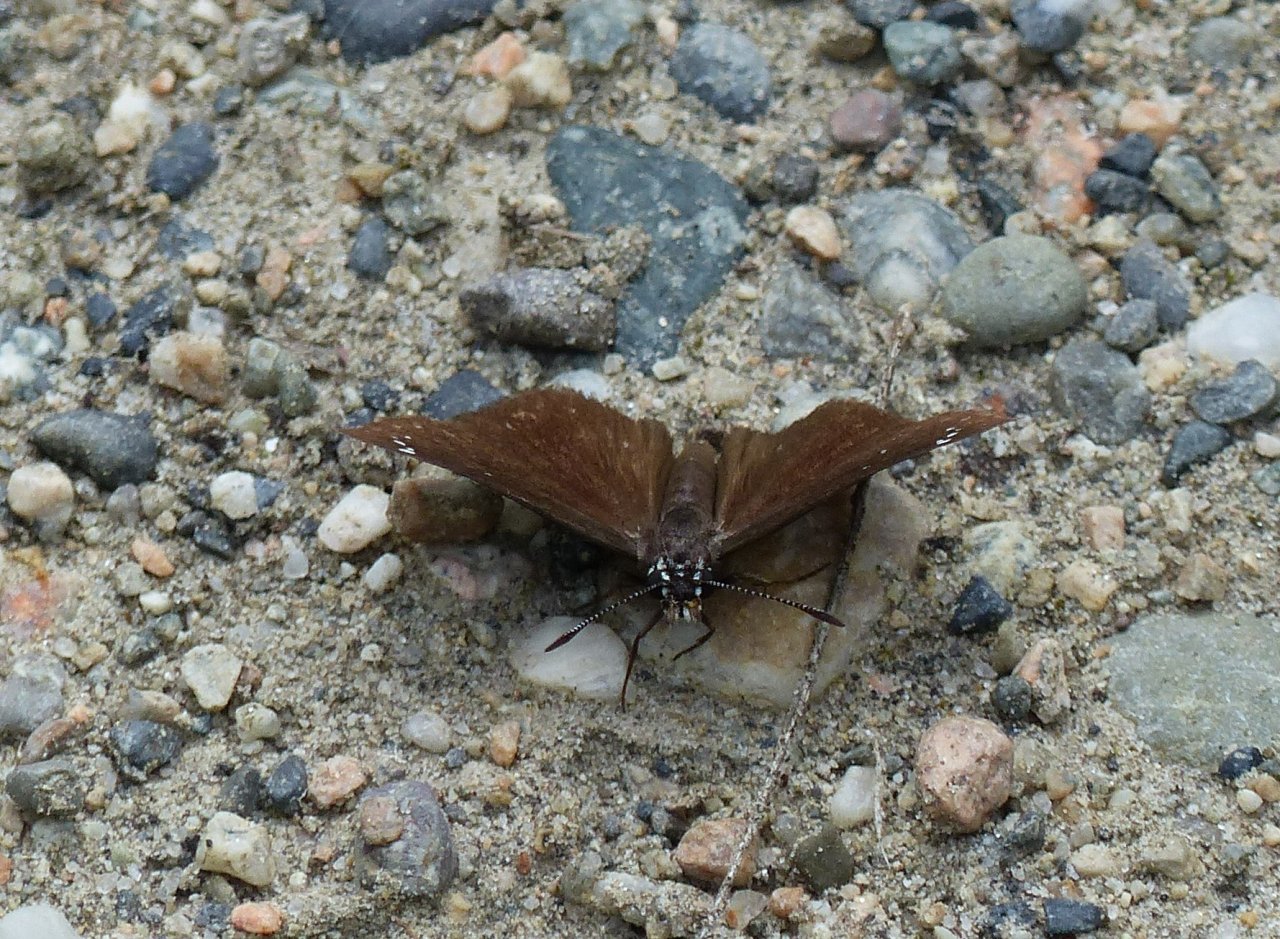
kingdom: Animalia
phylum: Arthropoda
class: Insecta
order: Lepidoptera
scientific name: Lepidoptera
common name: Butterflies
